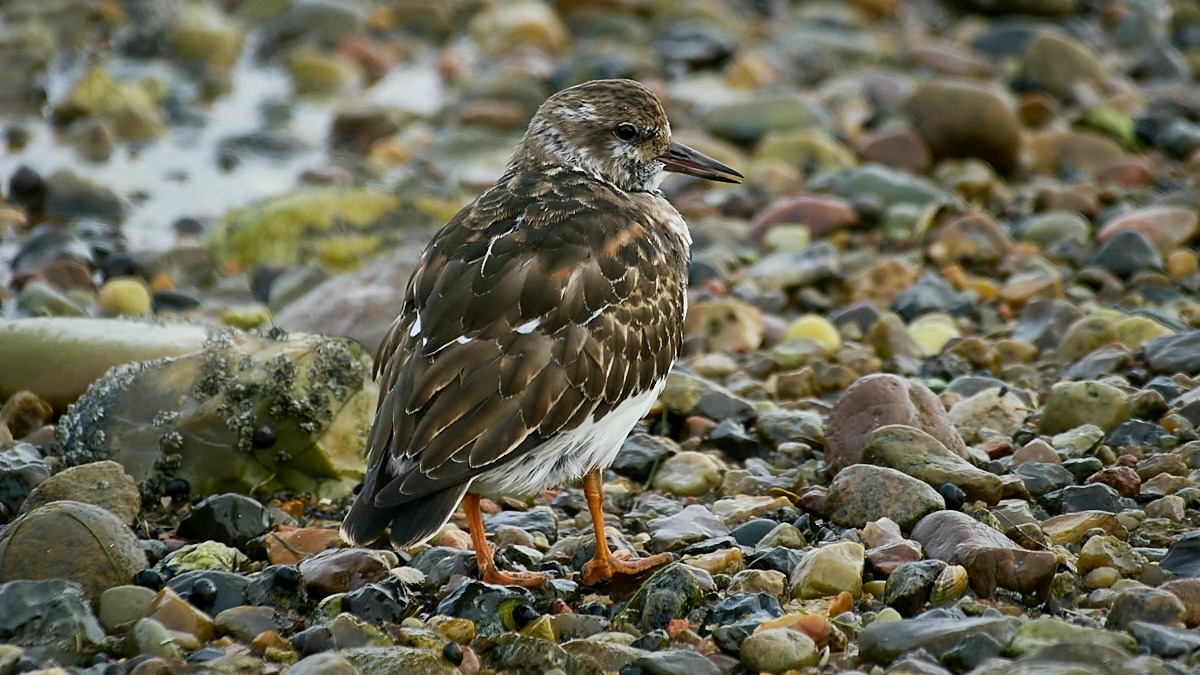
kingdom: Animalia
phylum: Chordata
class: Aves
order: Charadriiformes
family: Scolopacidae
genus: Arenaria
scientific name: Arenaria interpres
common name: Stenvender
